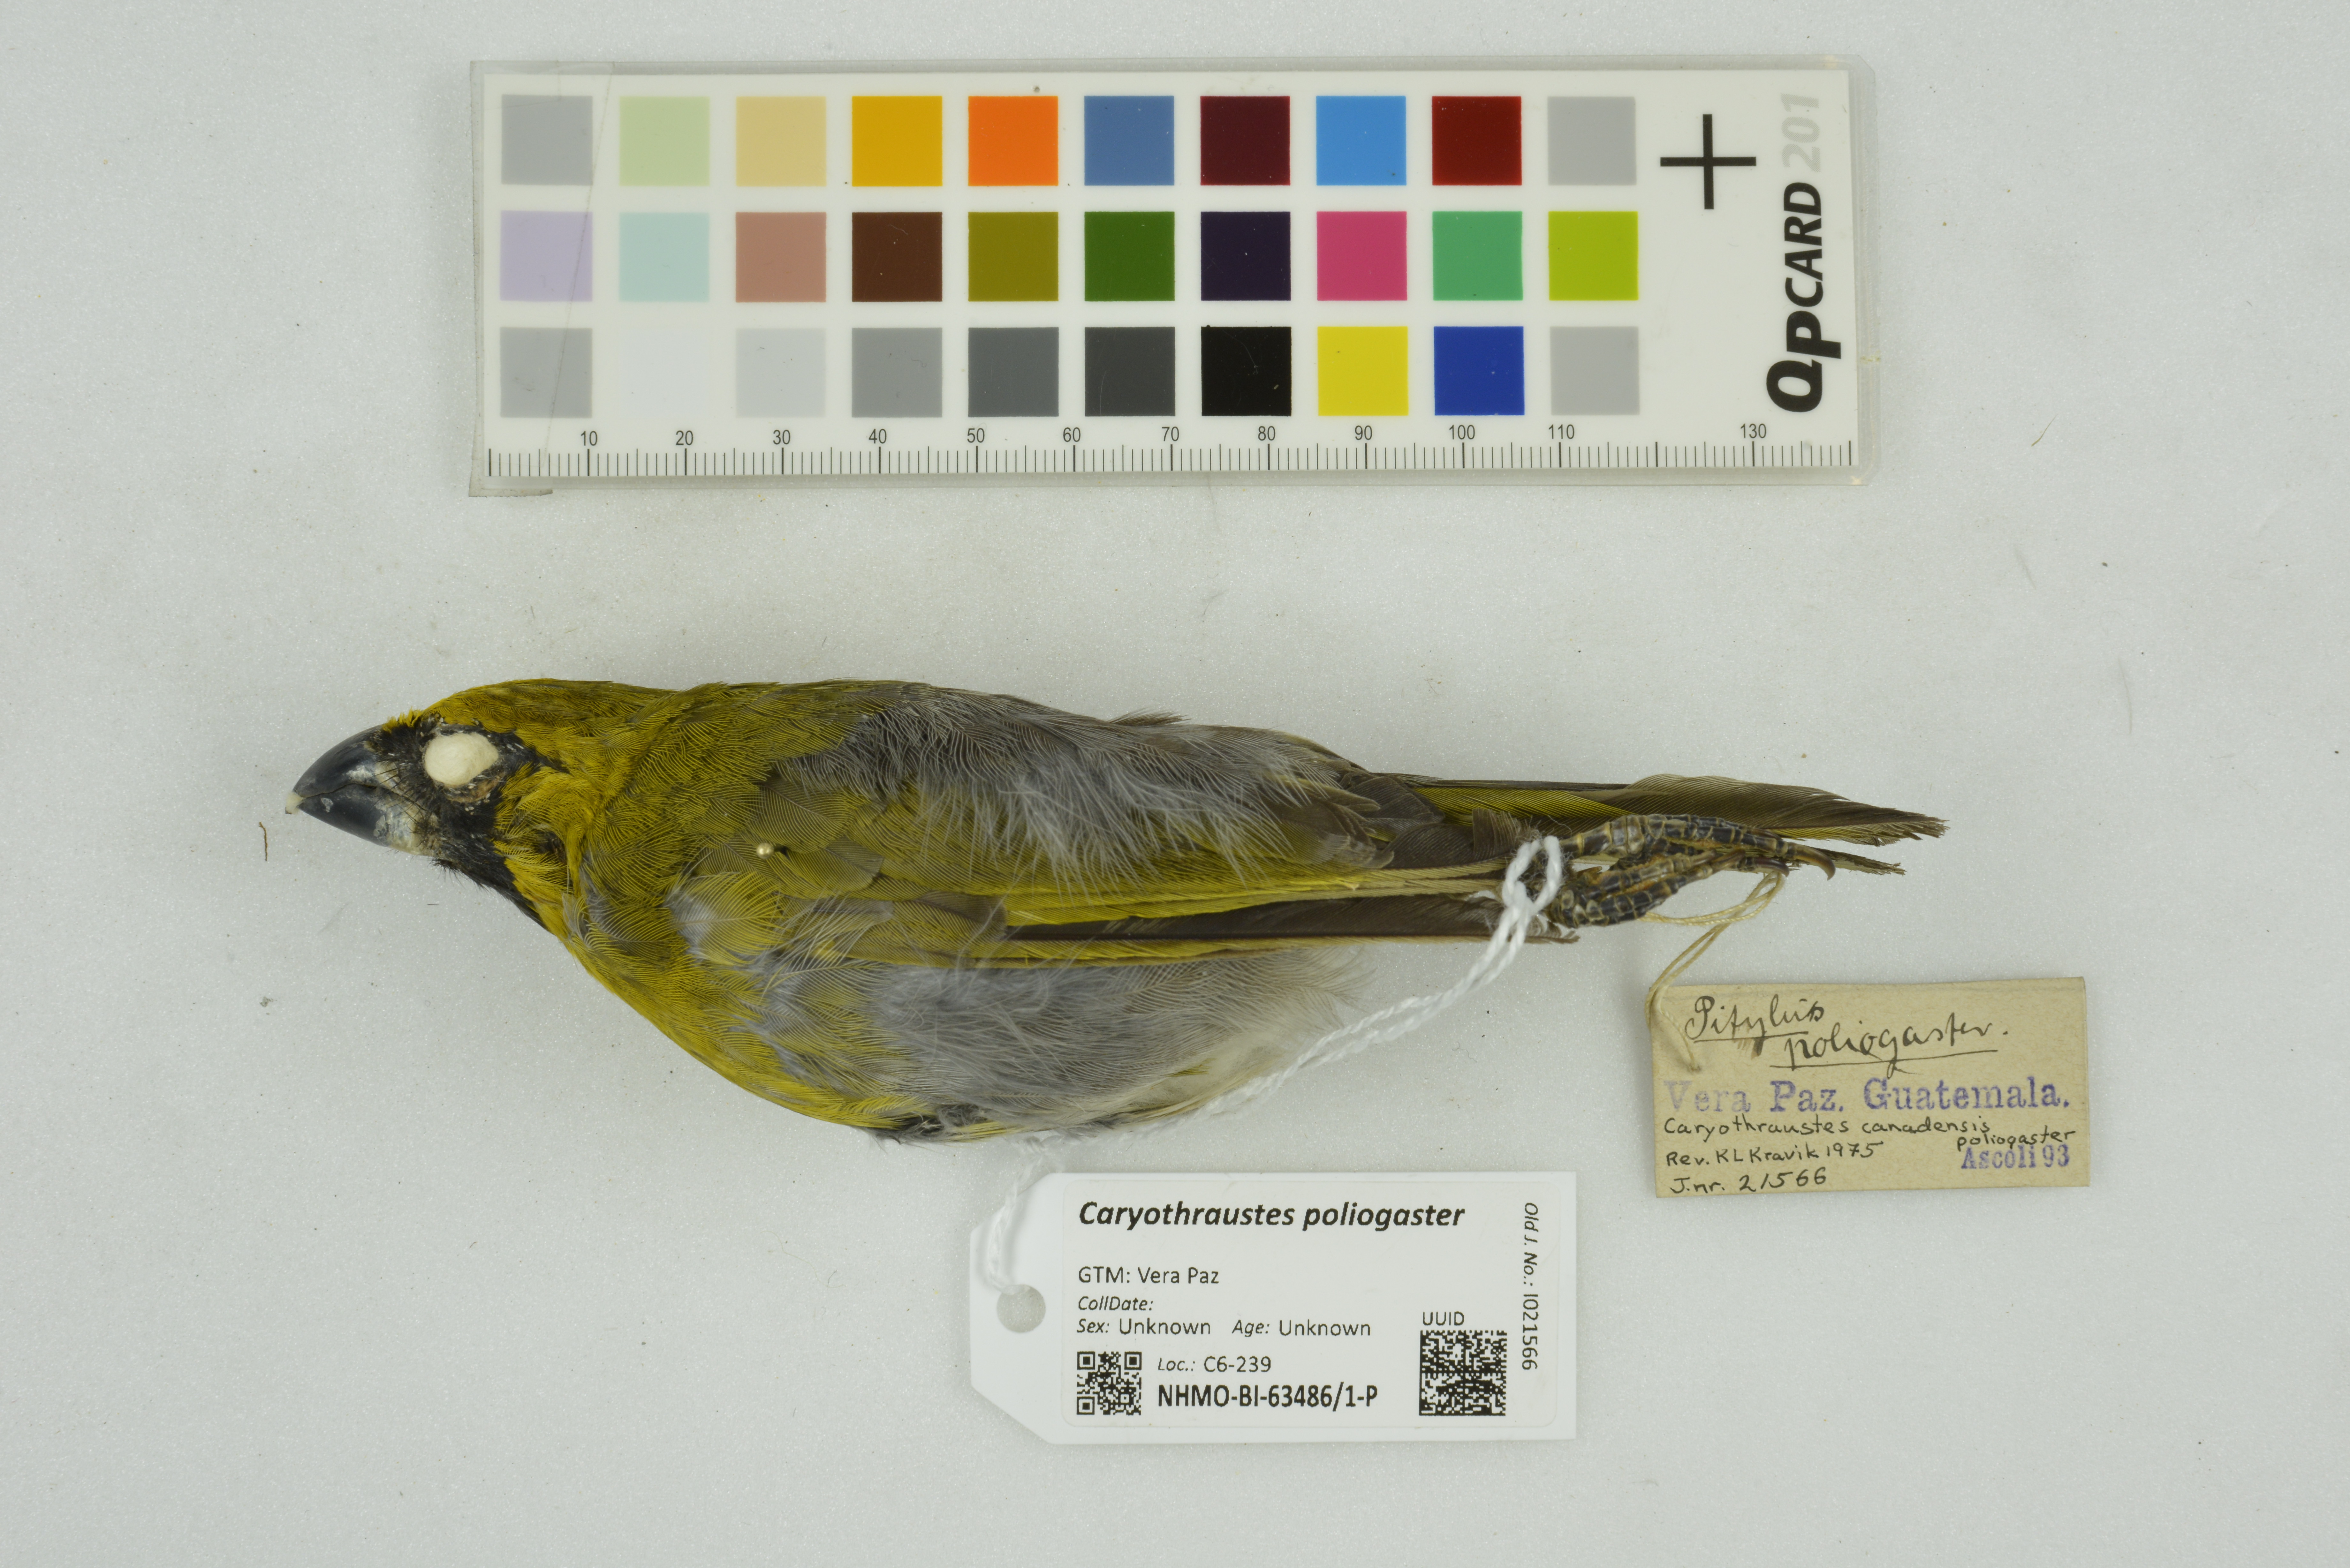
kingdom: Animalia
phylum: Chordata
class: Aves
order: Passeriformes
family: Cardinalidae
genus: Caryothraustes
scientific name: Caryothraustes poliogaster
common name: Black-faced grosbeak
